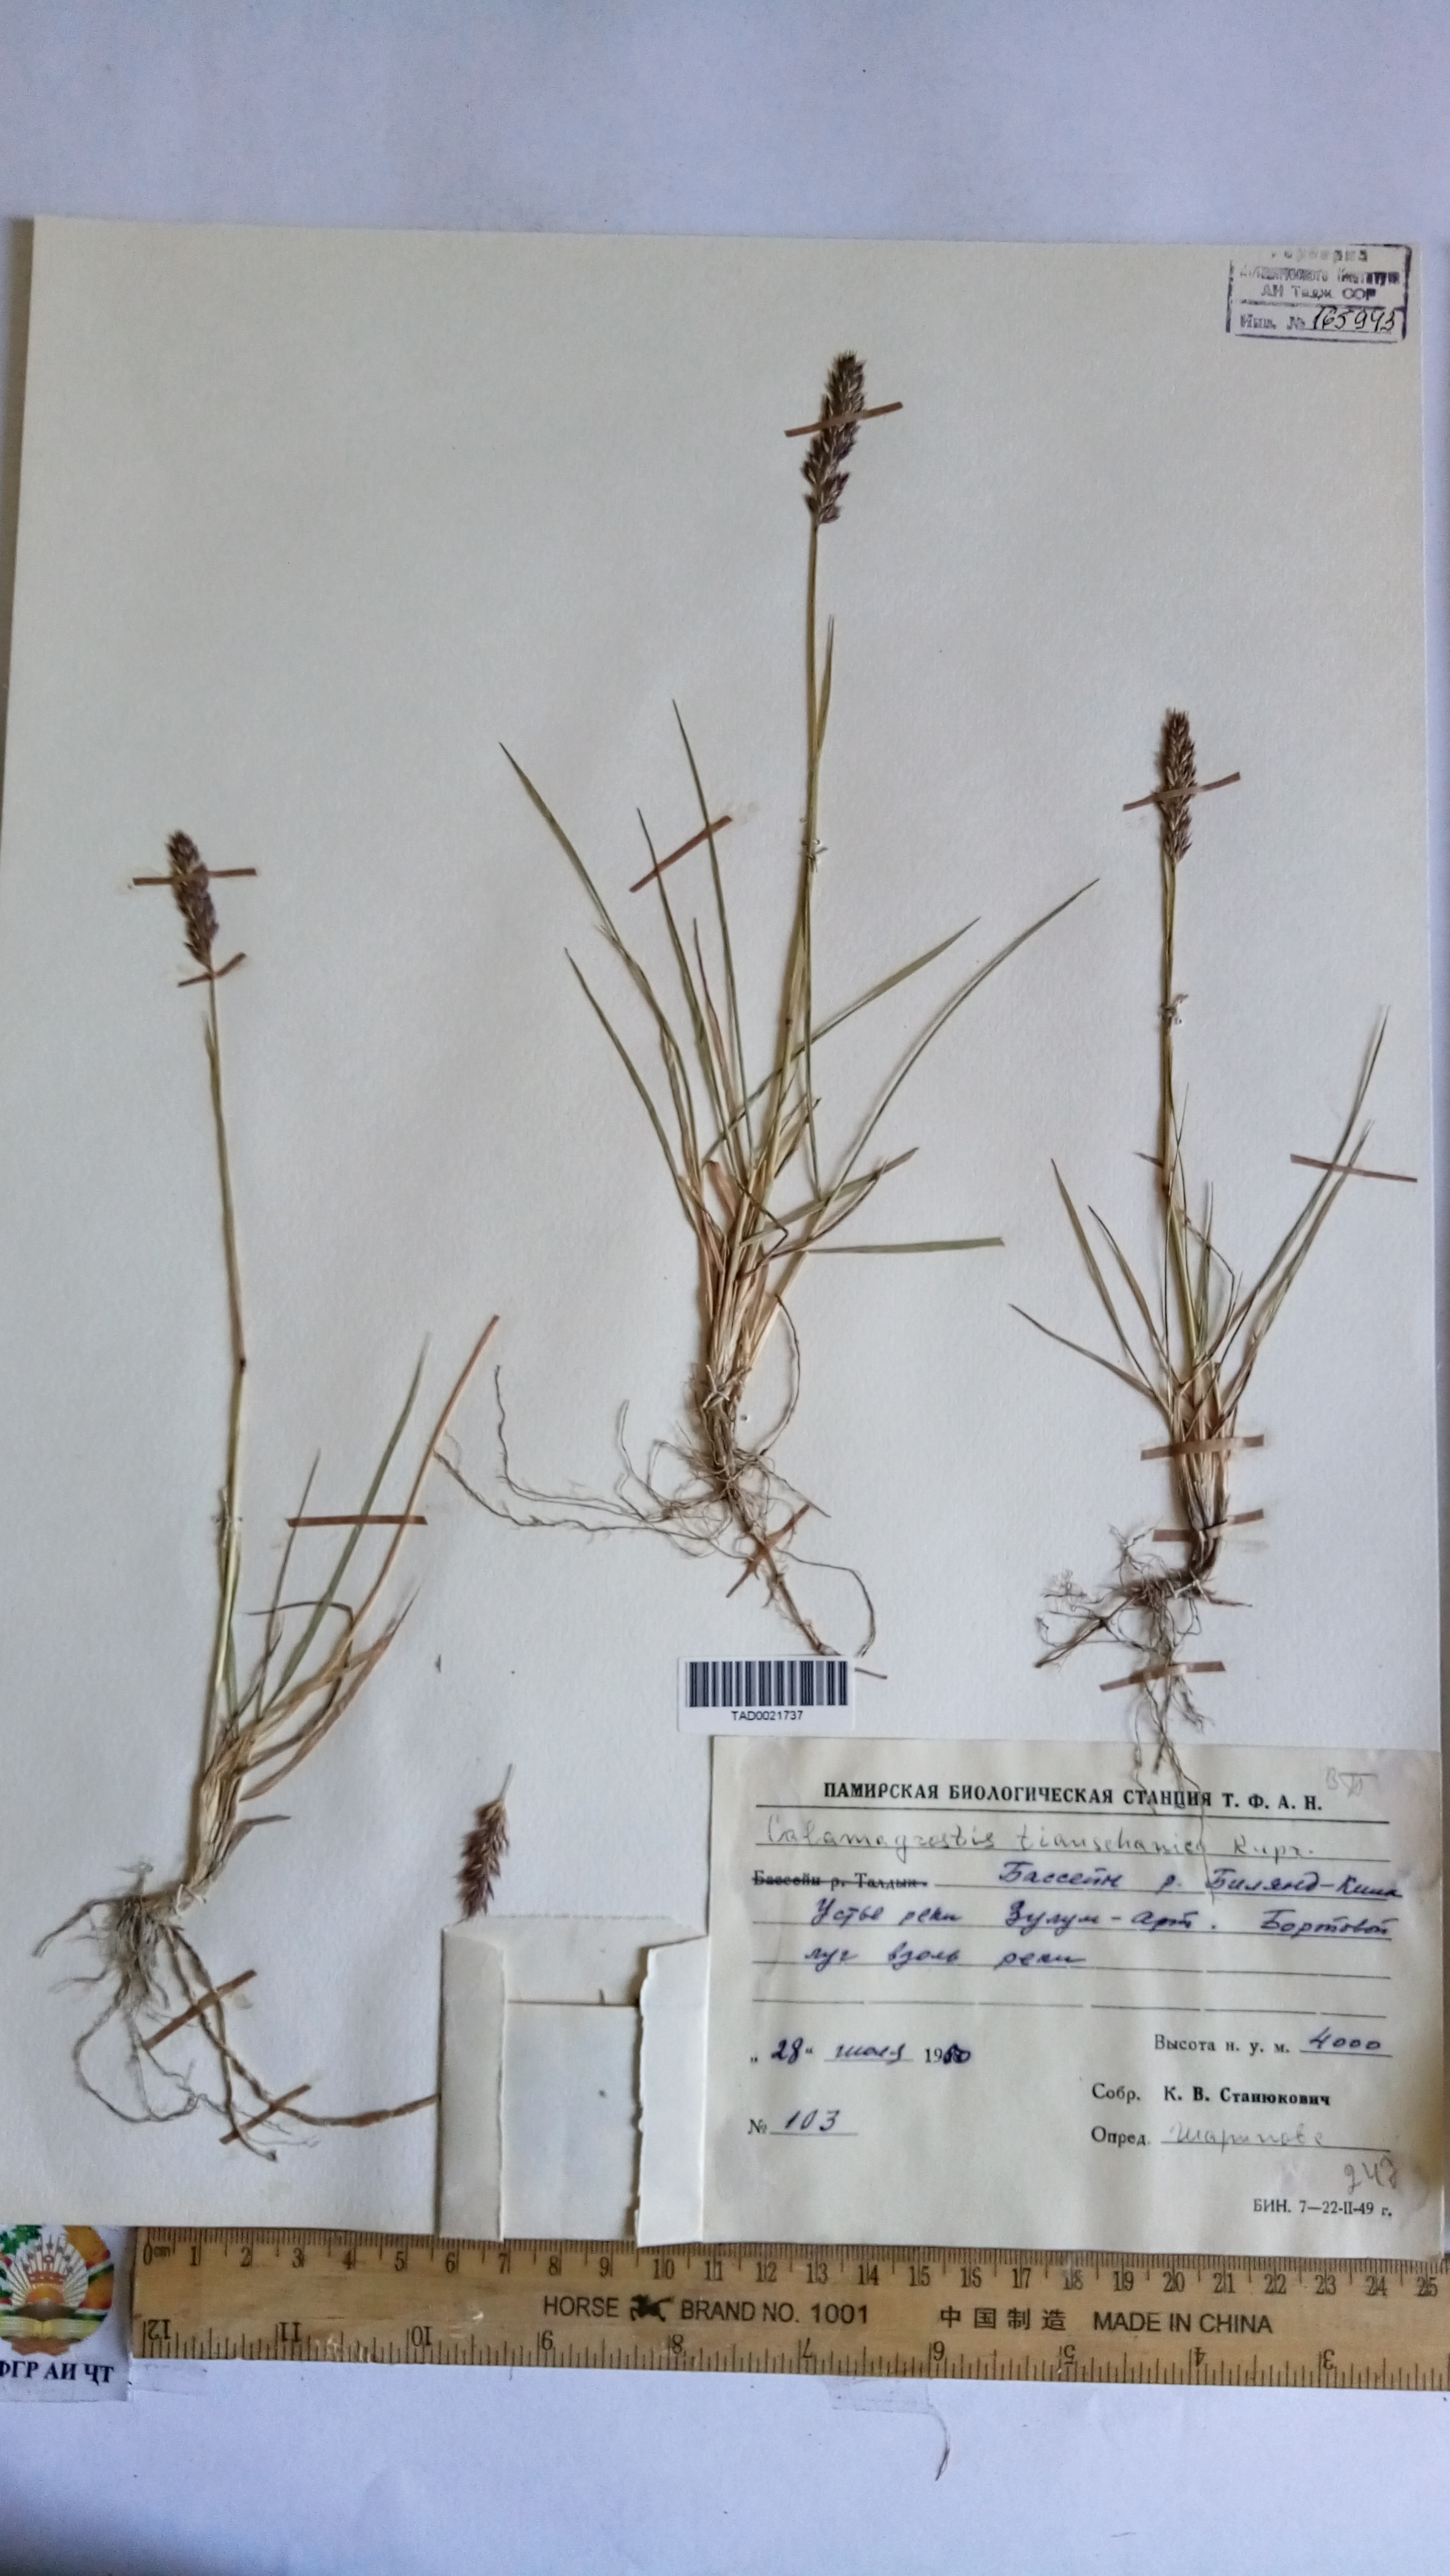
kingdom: Plantae
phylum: Tracheophyta
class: Liliopsida
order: Poales
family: Poaceae
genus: Calamagrostis
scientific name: Calamagrostis tianschanica
